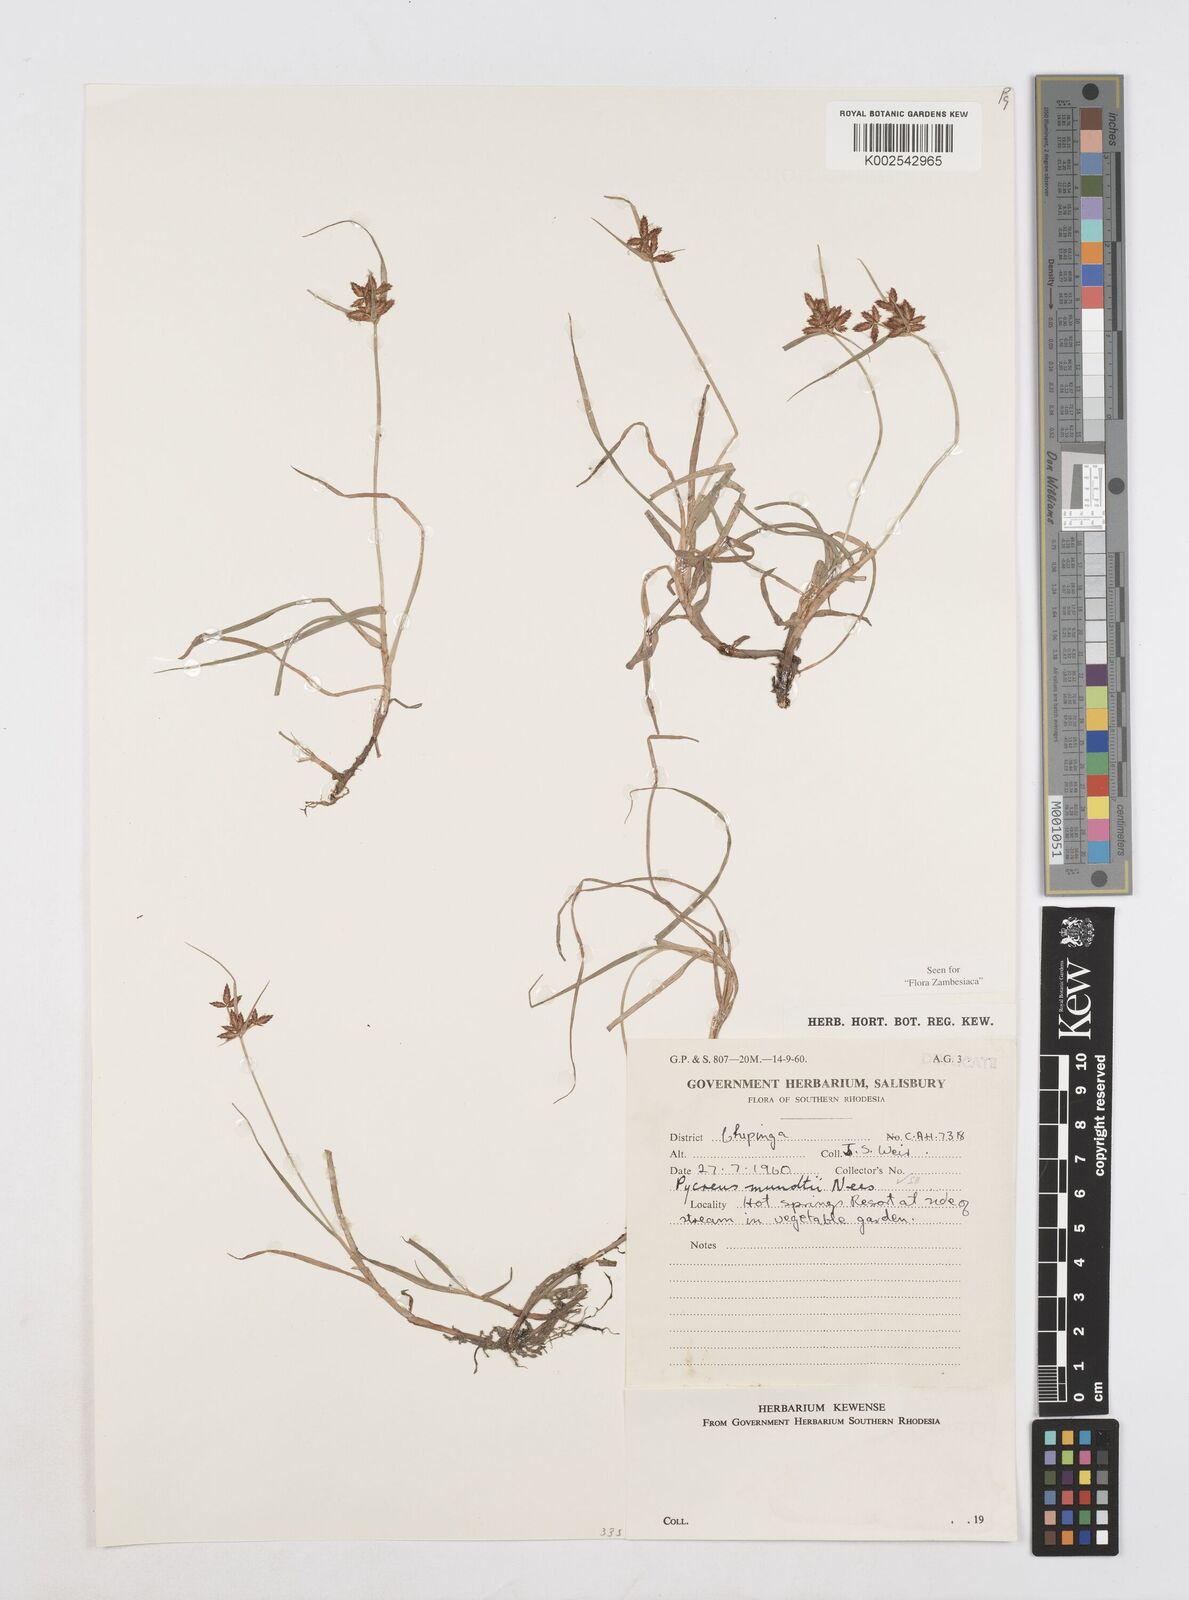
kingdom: Plantae
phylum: Tracheophyta
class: Liliopsida
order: Poales
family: Cyperaceae
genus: Cyperus
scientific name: Cyperus mundii
